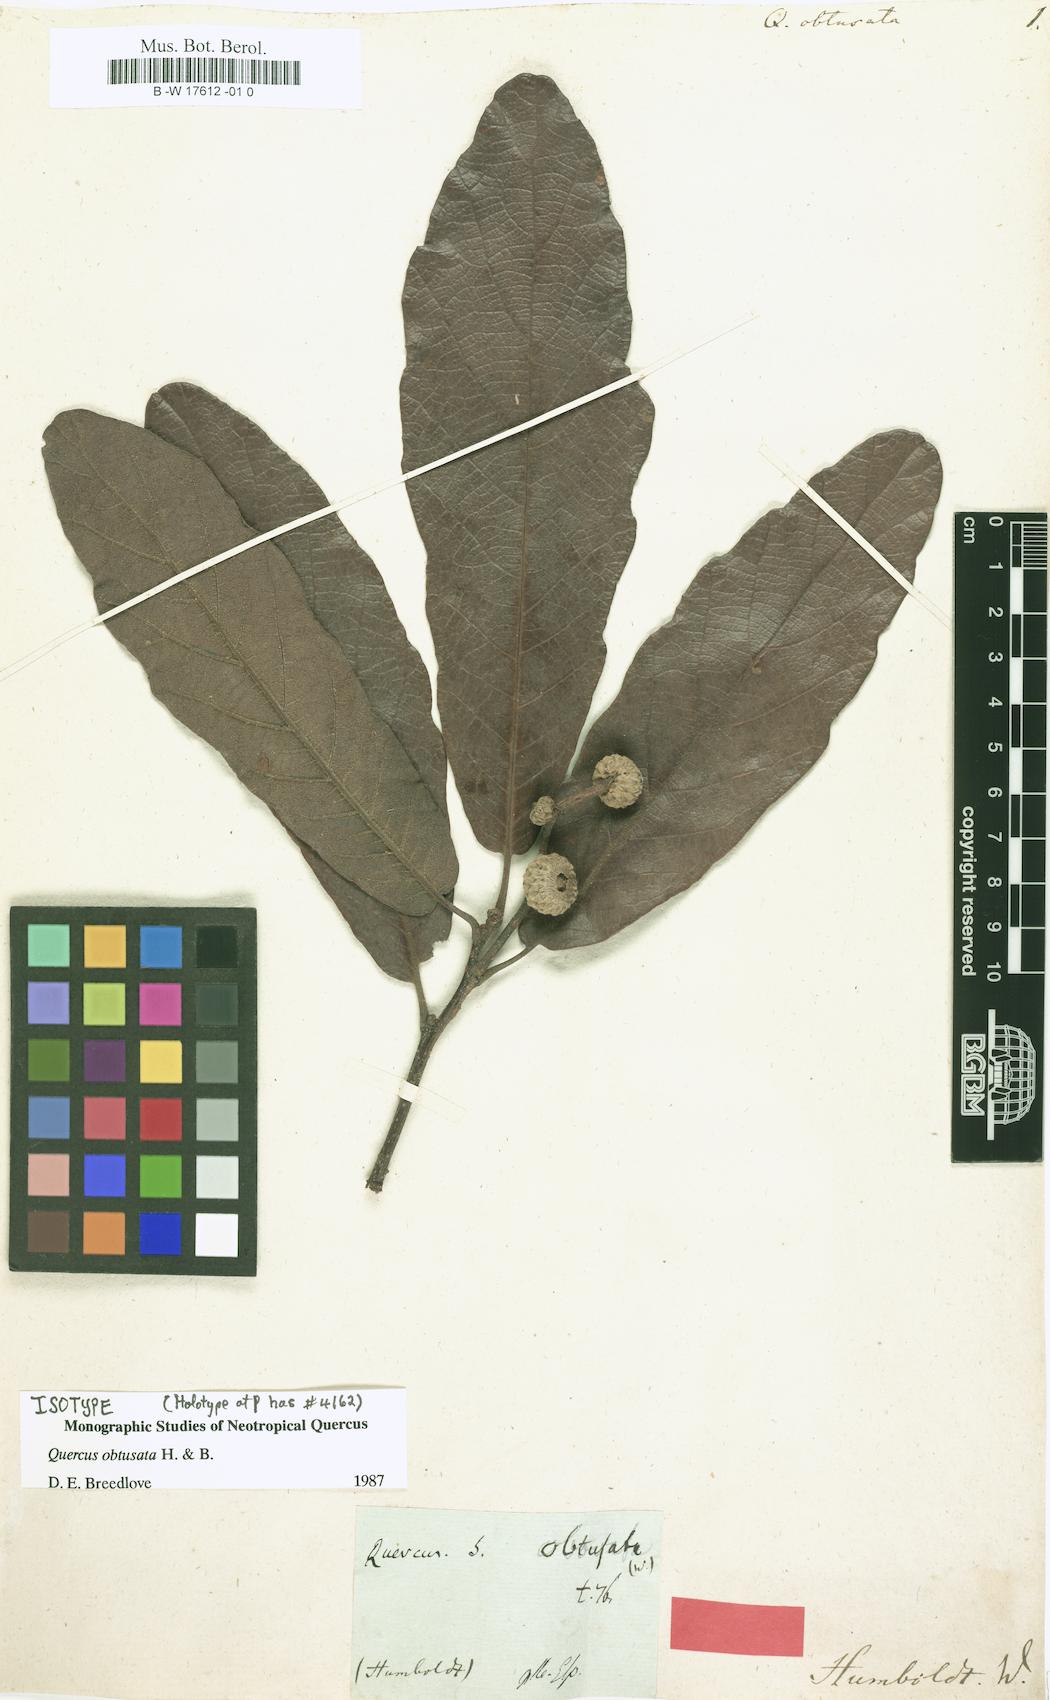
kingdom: Plantae
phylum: Tracheophyta
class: Magnoliopsida
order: Fagales
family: Fagaceae
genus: Quercus
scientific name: Quercus obtusata
